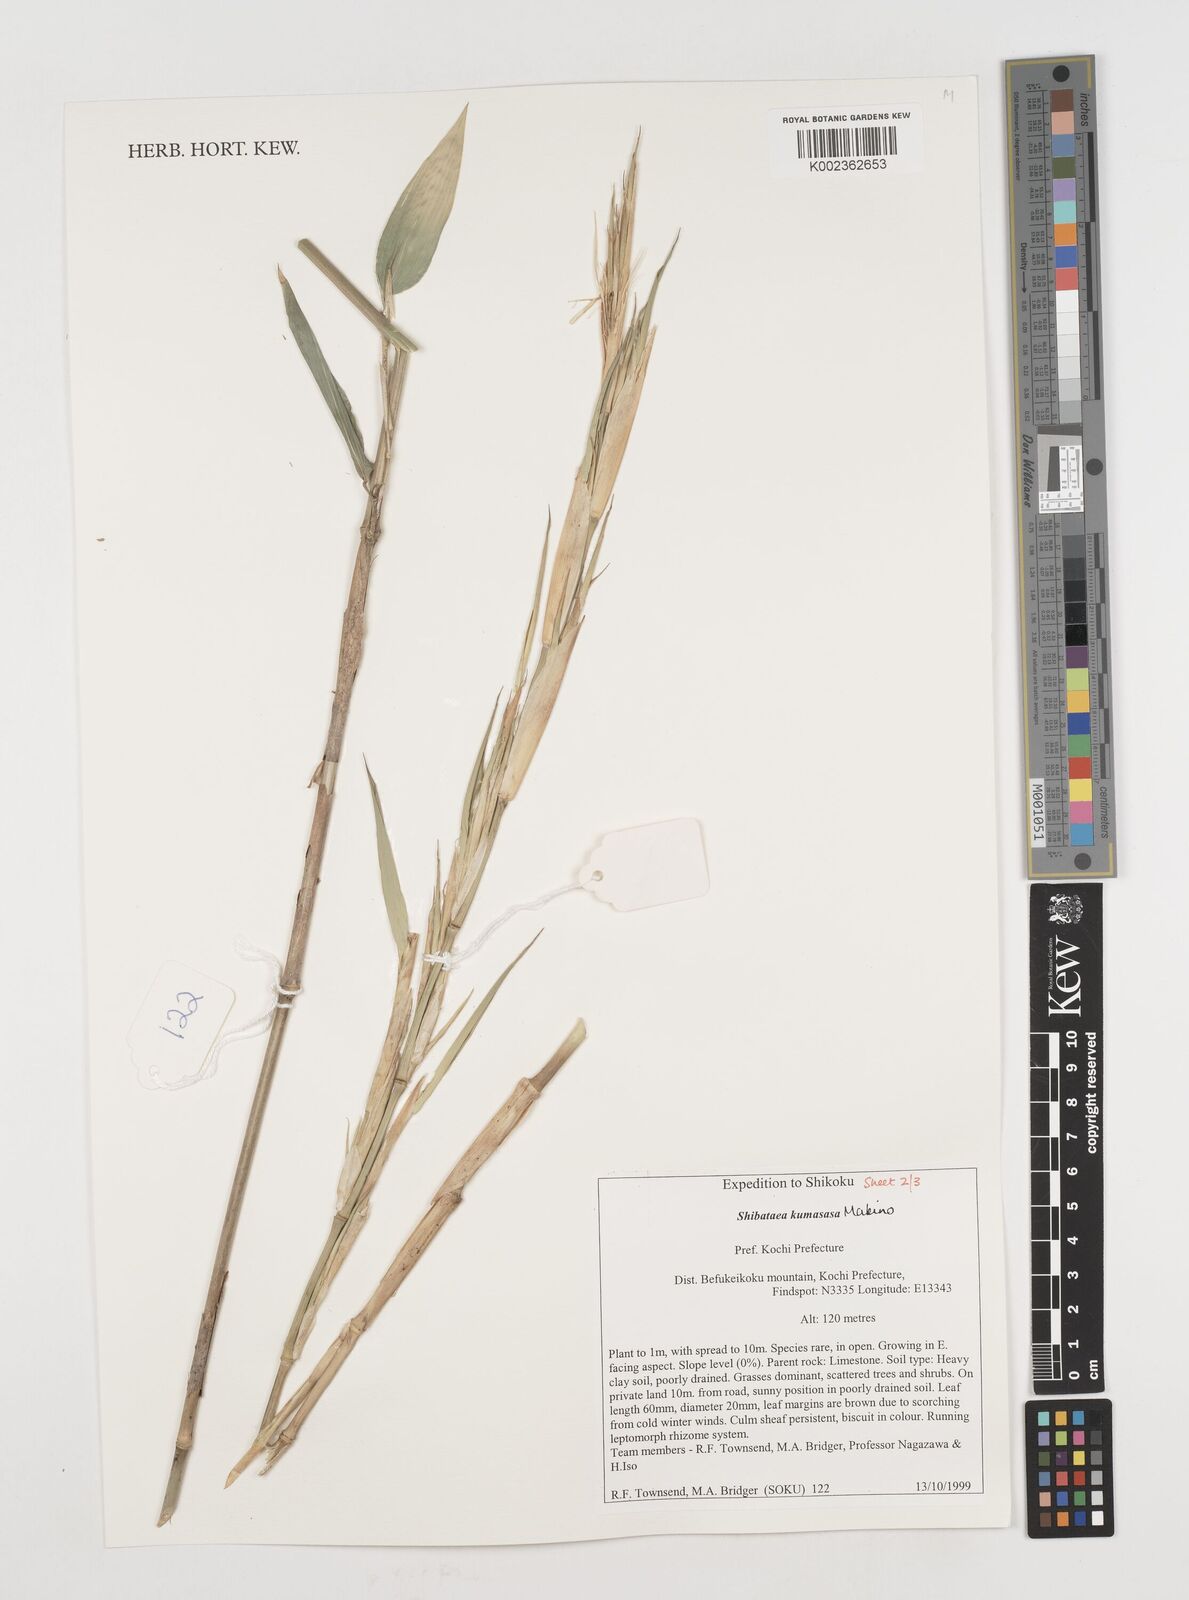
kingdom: Plantae
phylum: Tracheophyta
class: Liliopsida
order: Poales
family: Poaceae
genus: Shibataea
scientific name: Shibataea kumasasa
